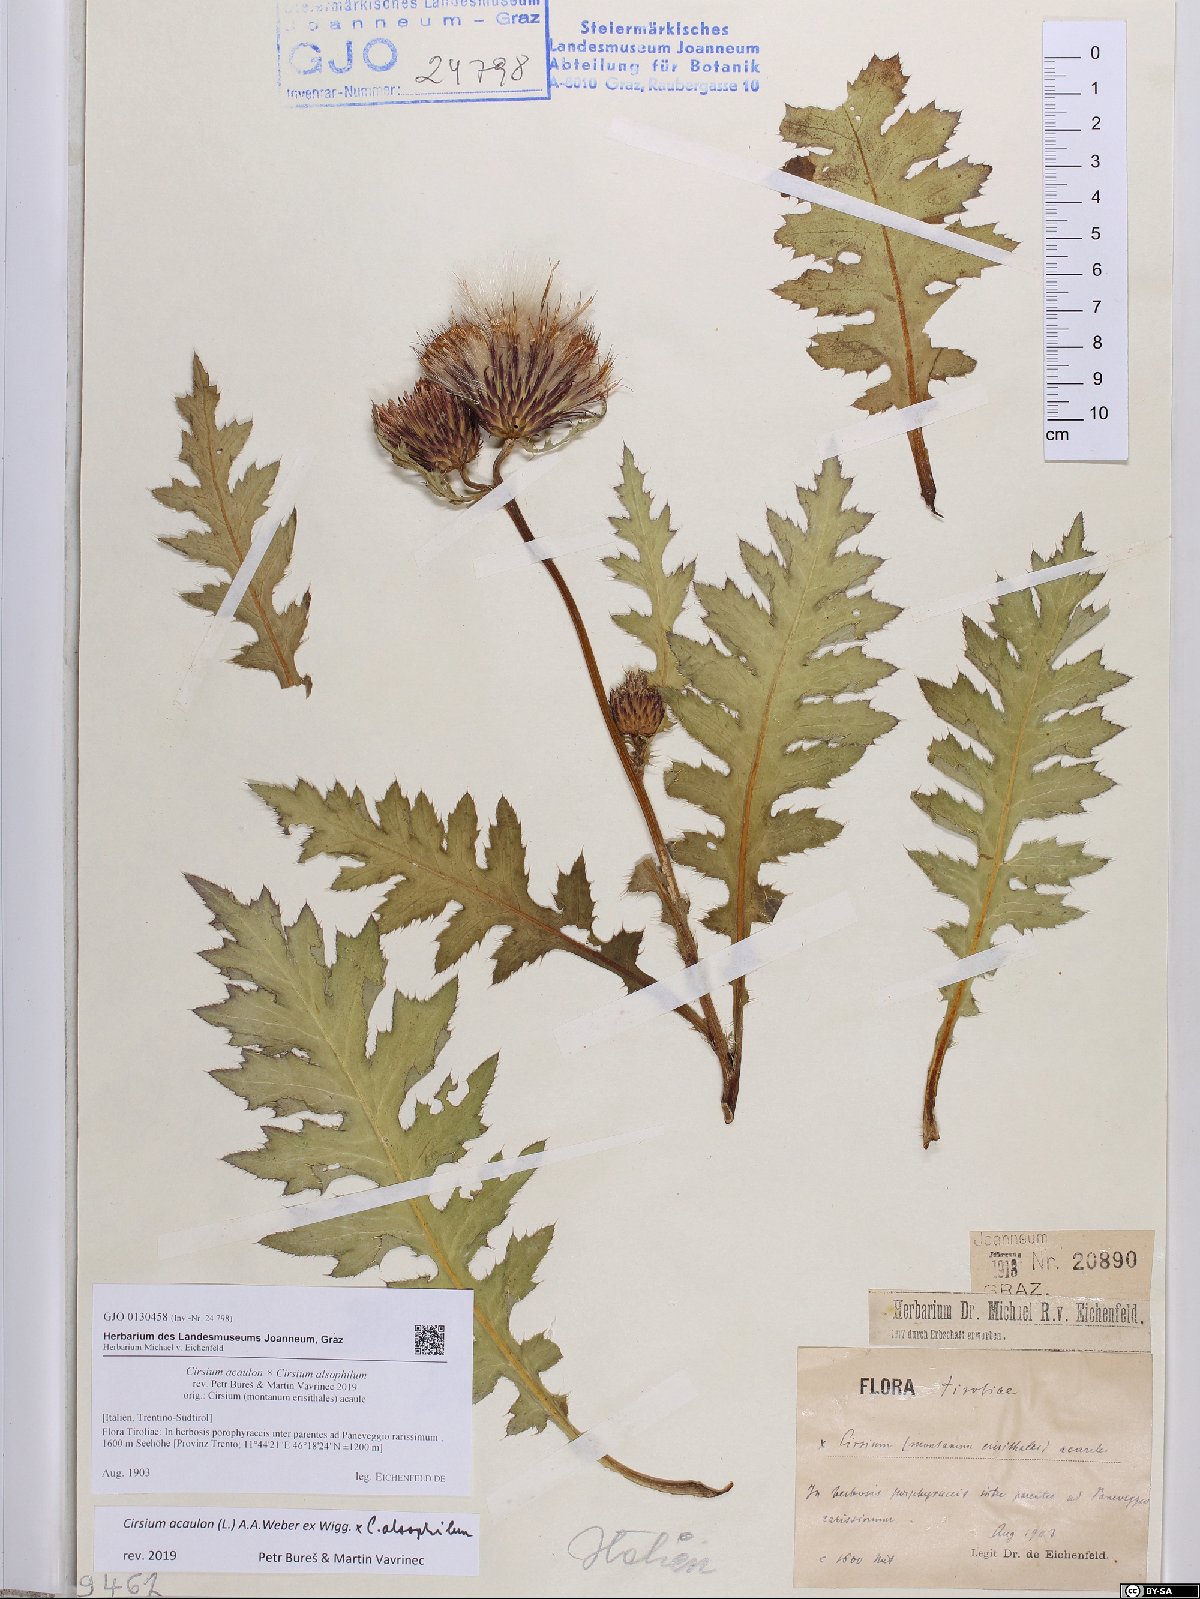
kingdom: Plantae
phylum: Tracheophyta
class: Magnoliopsida
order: Asterales
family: Asteraceae
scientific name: Asteraceae
